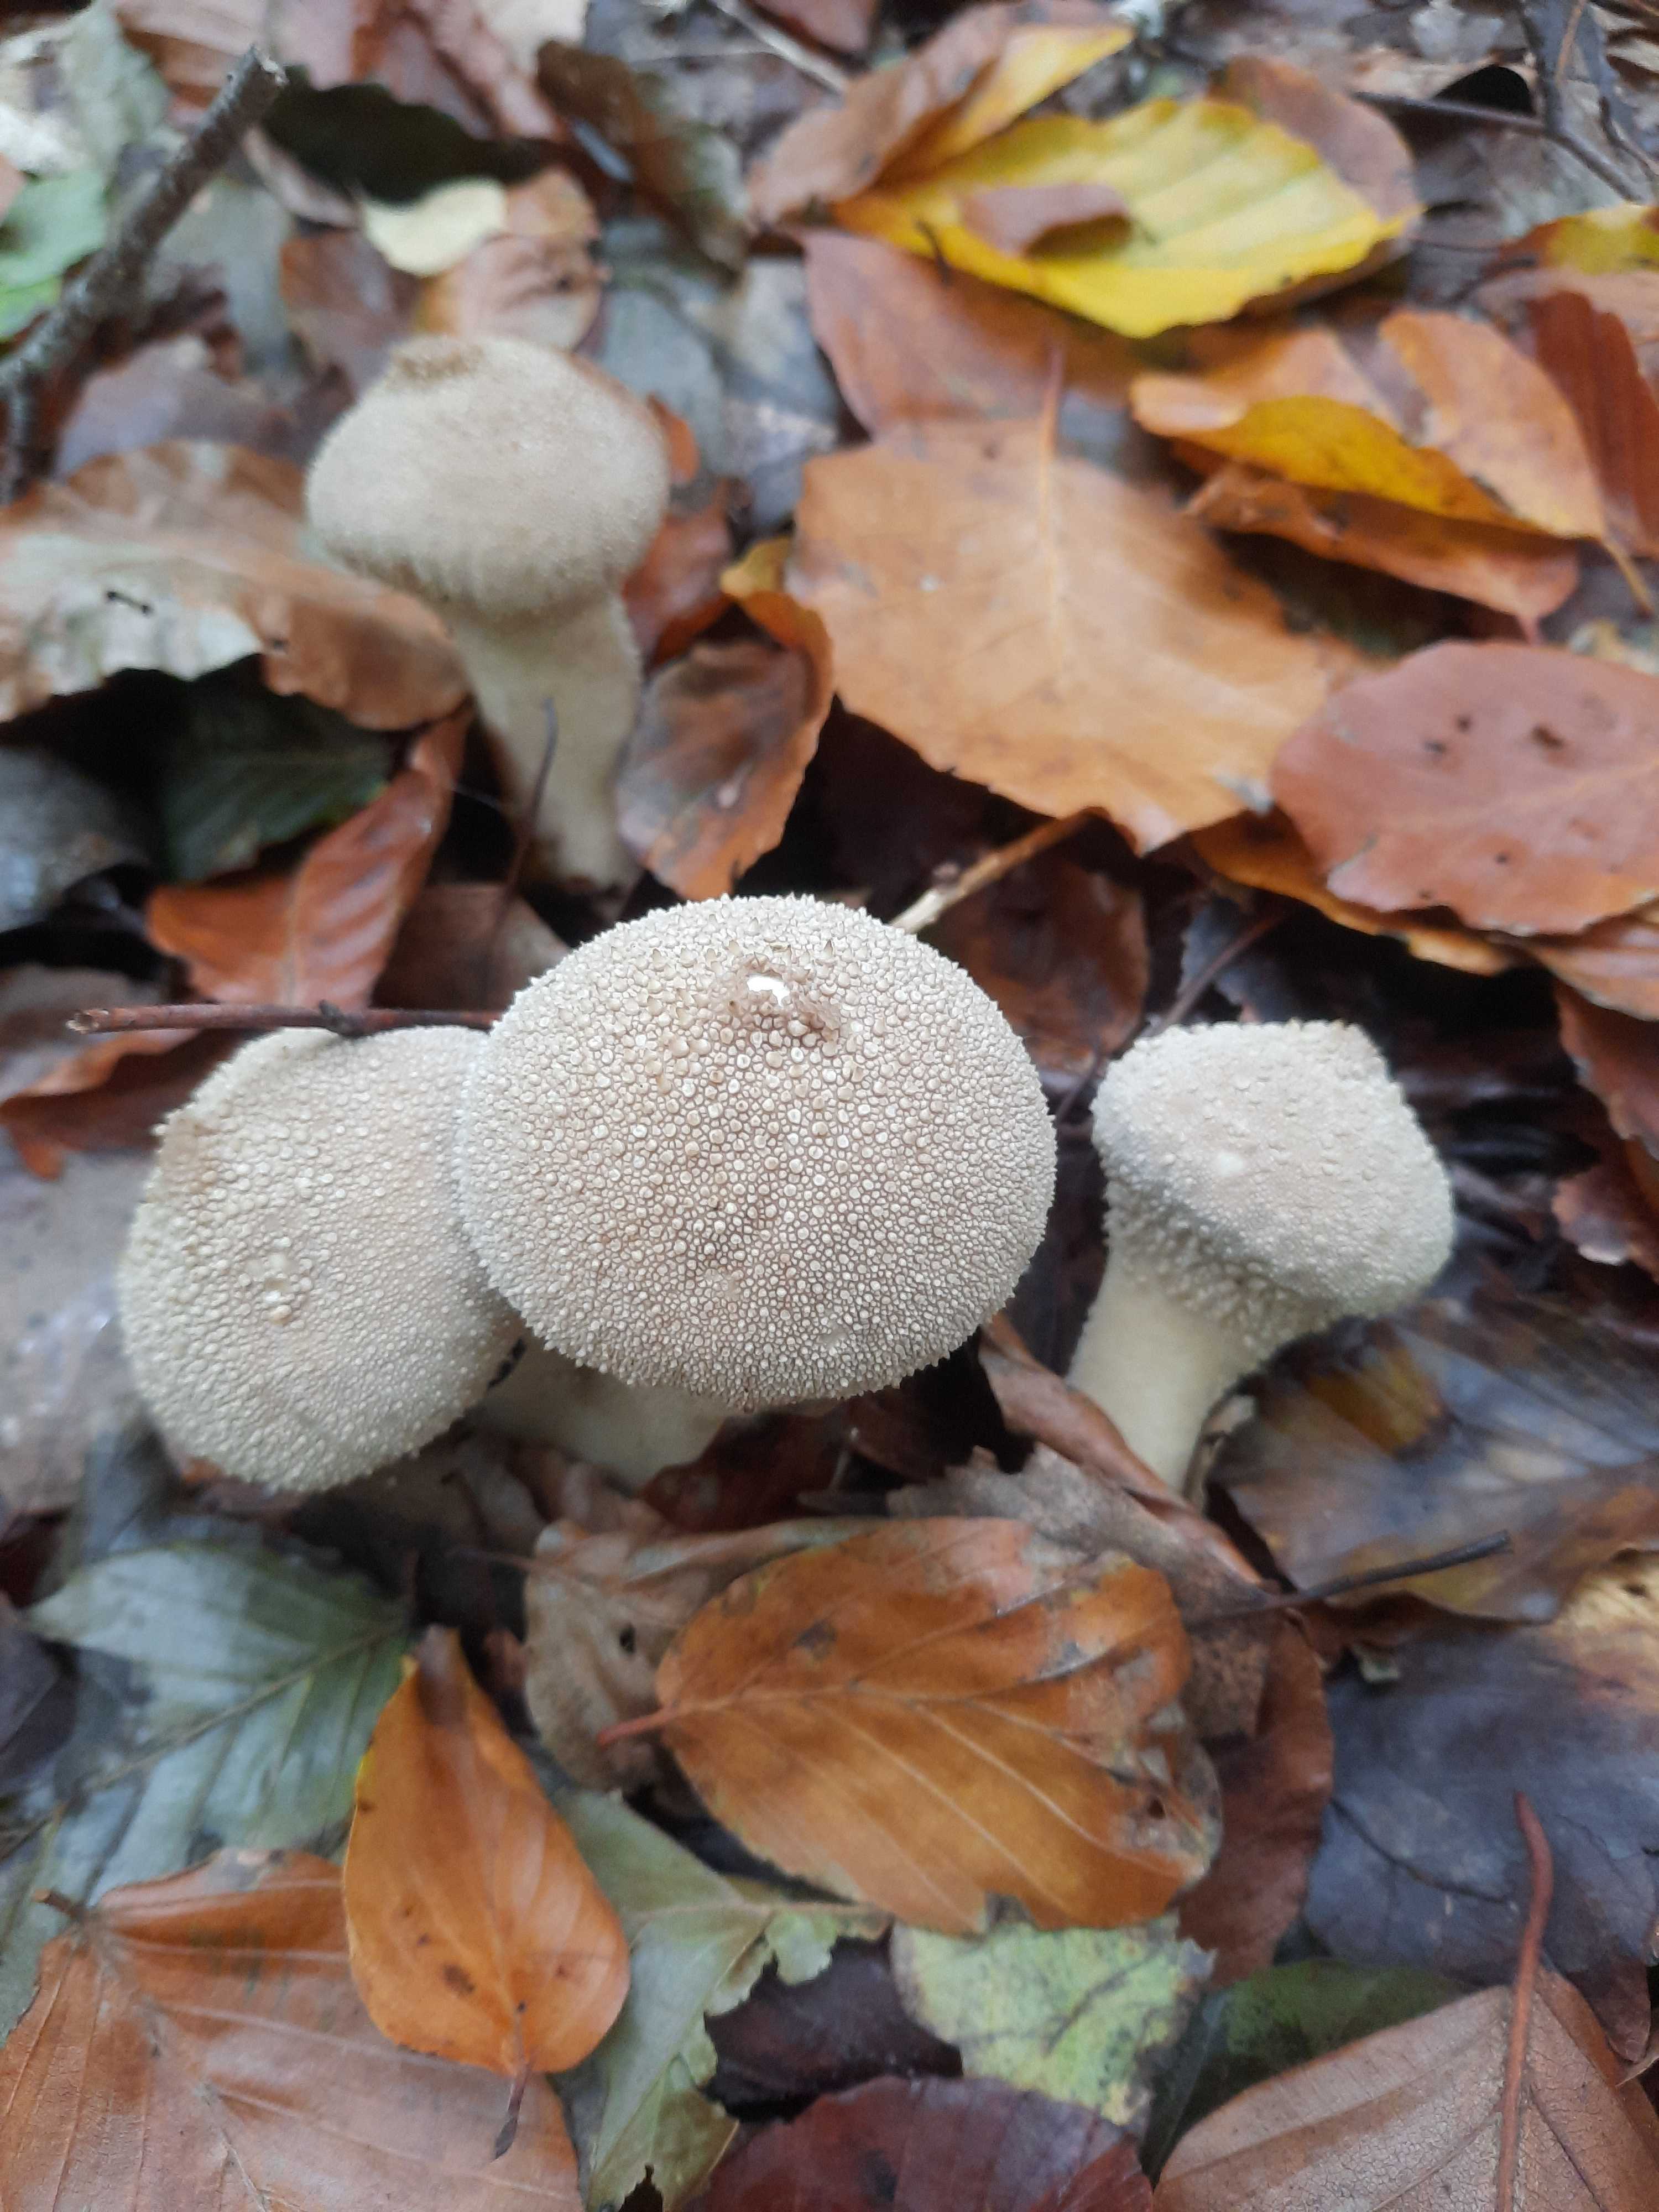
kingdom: Fungi
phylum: Basidiomycota
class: Agaricomycetes
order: Agaricales
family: Lycoperdaceae
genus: Lycoperdon
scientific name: Lycoperdon perlatum
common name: krystal-støvbold
